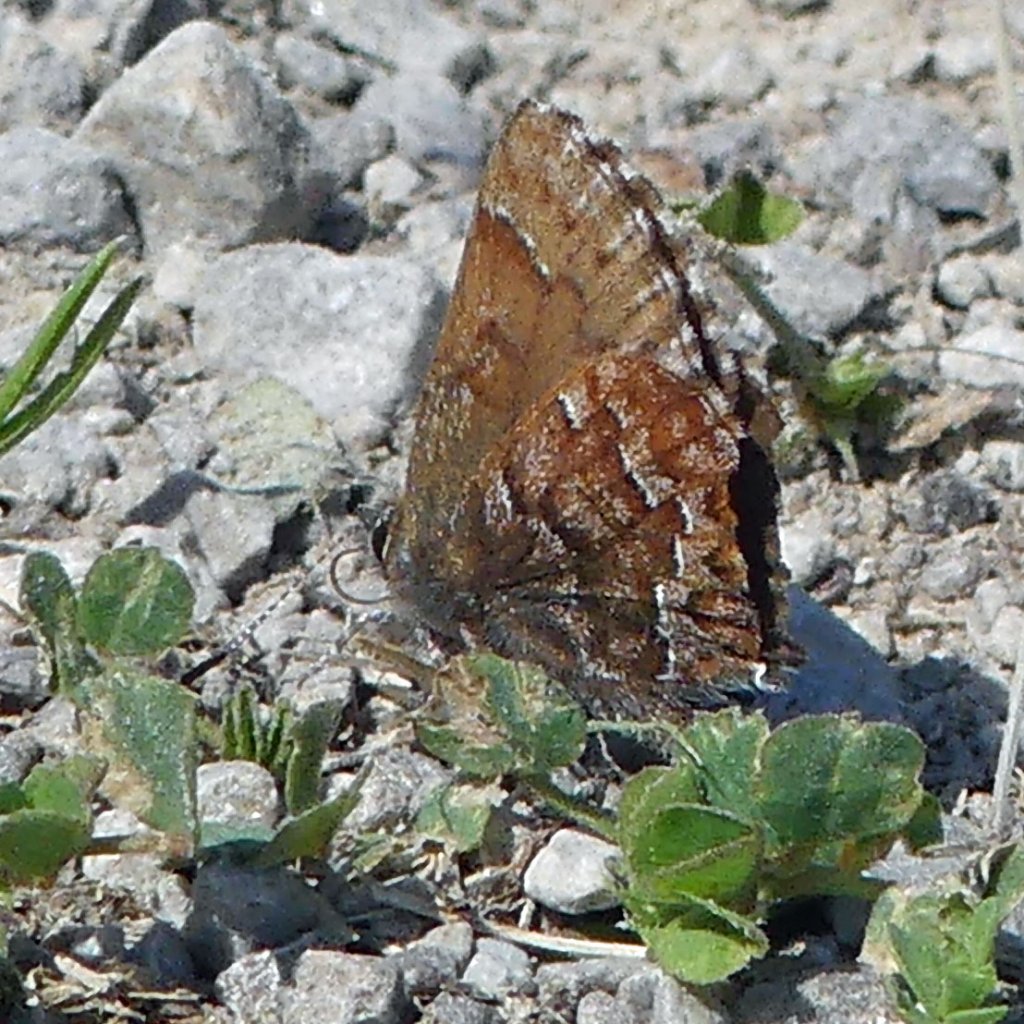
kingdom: Animalia
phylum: Arthropoda
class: Insecta
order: Lepidoptera
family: Lycaenidae
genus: Incisalia
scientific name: Incisalia niphon
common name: Eastern Pine Elfin
